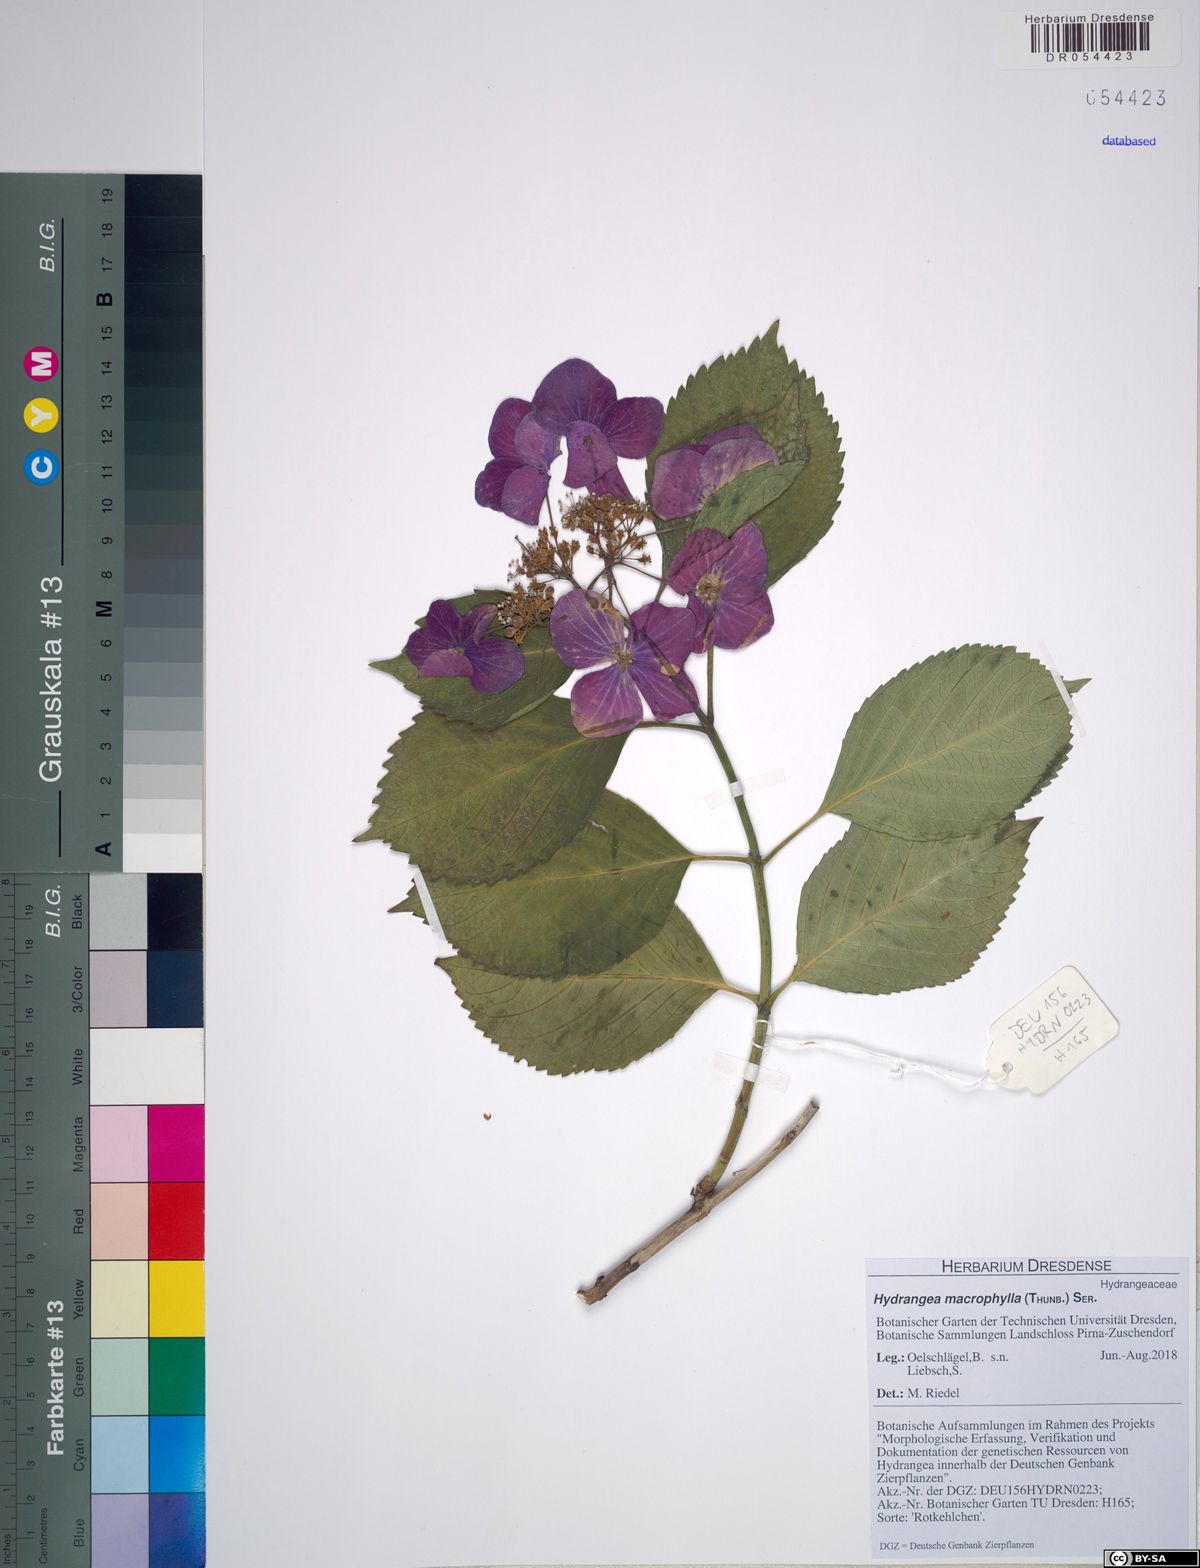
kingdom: Plantae
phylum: Tracheophyta
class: Magnoliopsida
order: Cornales
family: Hydrangeaceae
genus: Hydrangea
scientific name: Hydrangea macrophylla
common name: Hydrangea
